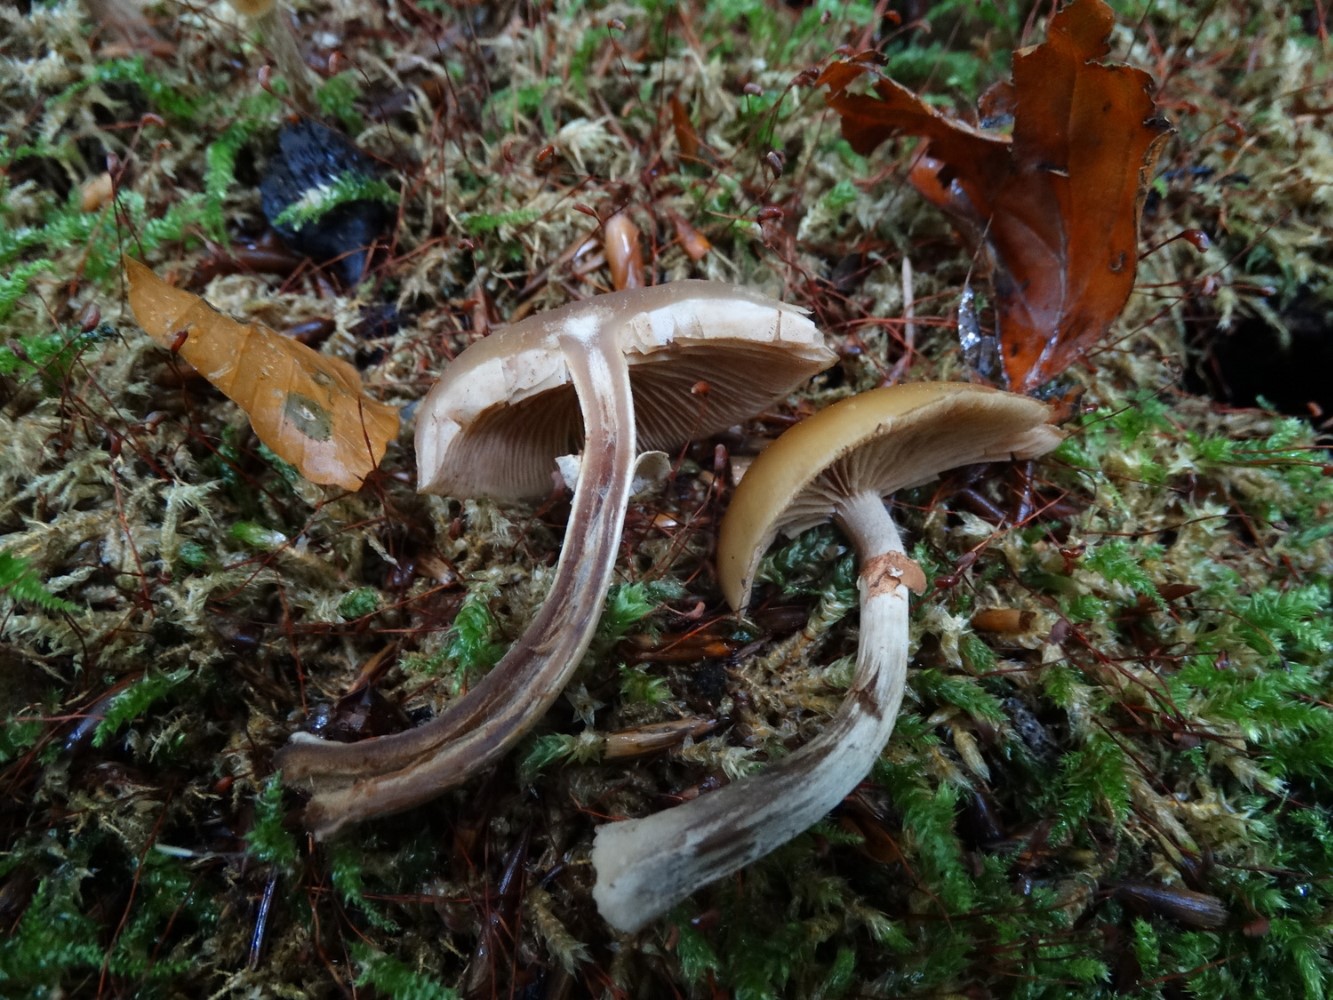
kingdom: Fungi
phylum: Basidiomycota
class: Agaricomycetes
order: Agaricales
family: Hymenogastraceae
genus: Galerina
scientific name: Galerina marginata
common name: randbæltet hjelmhat
